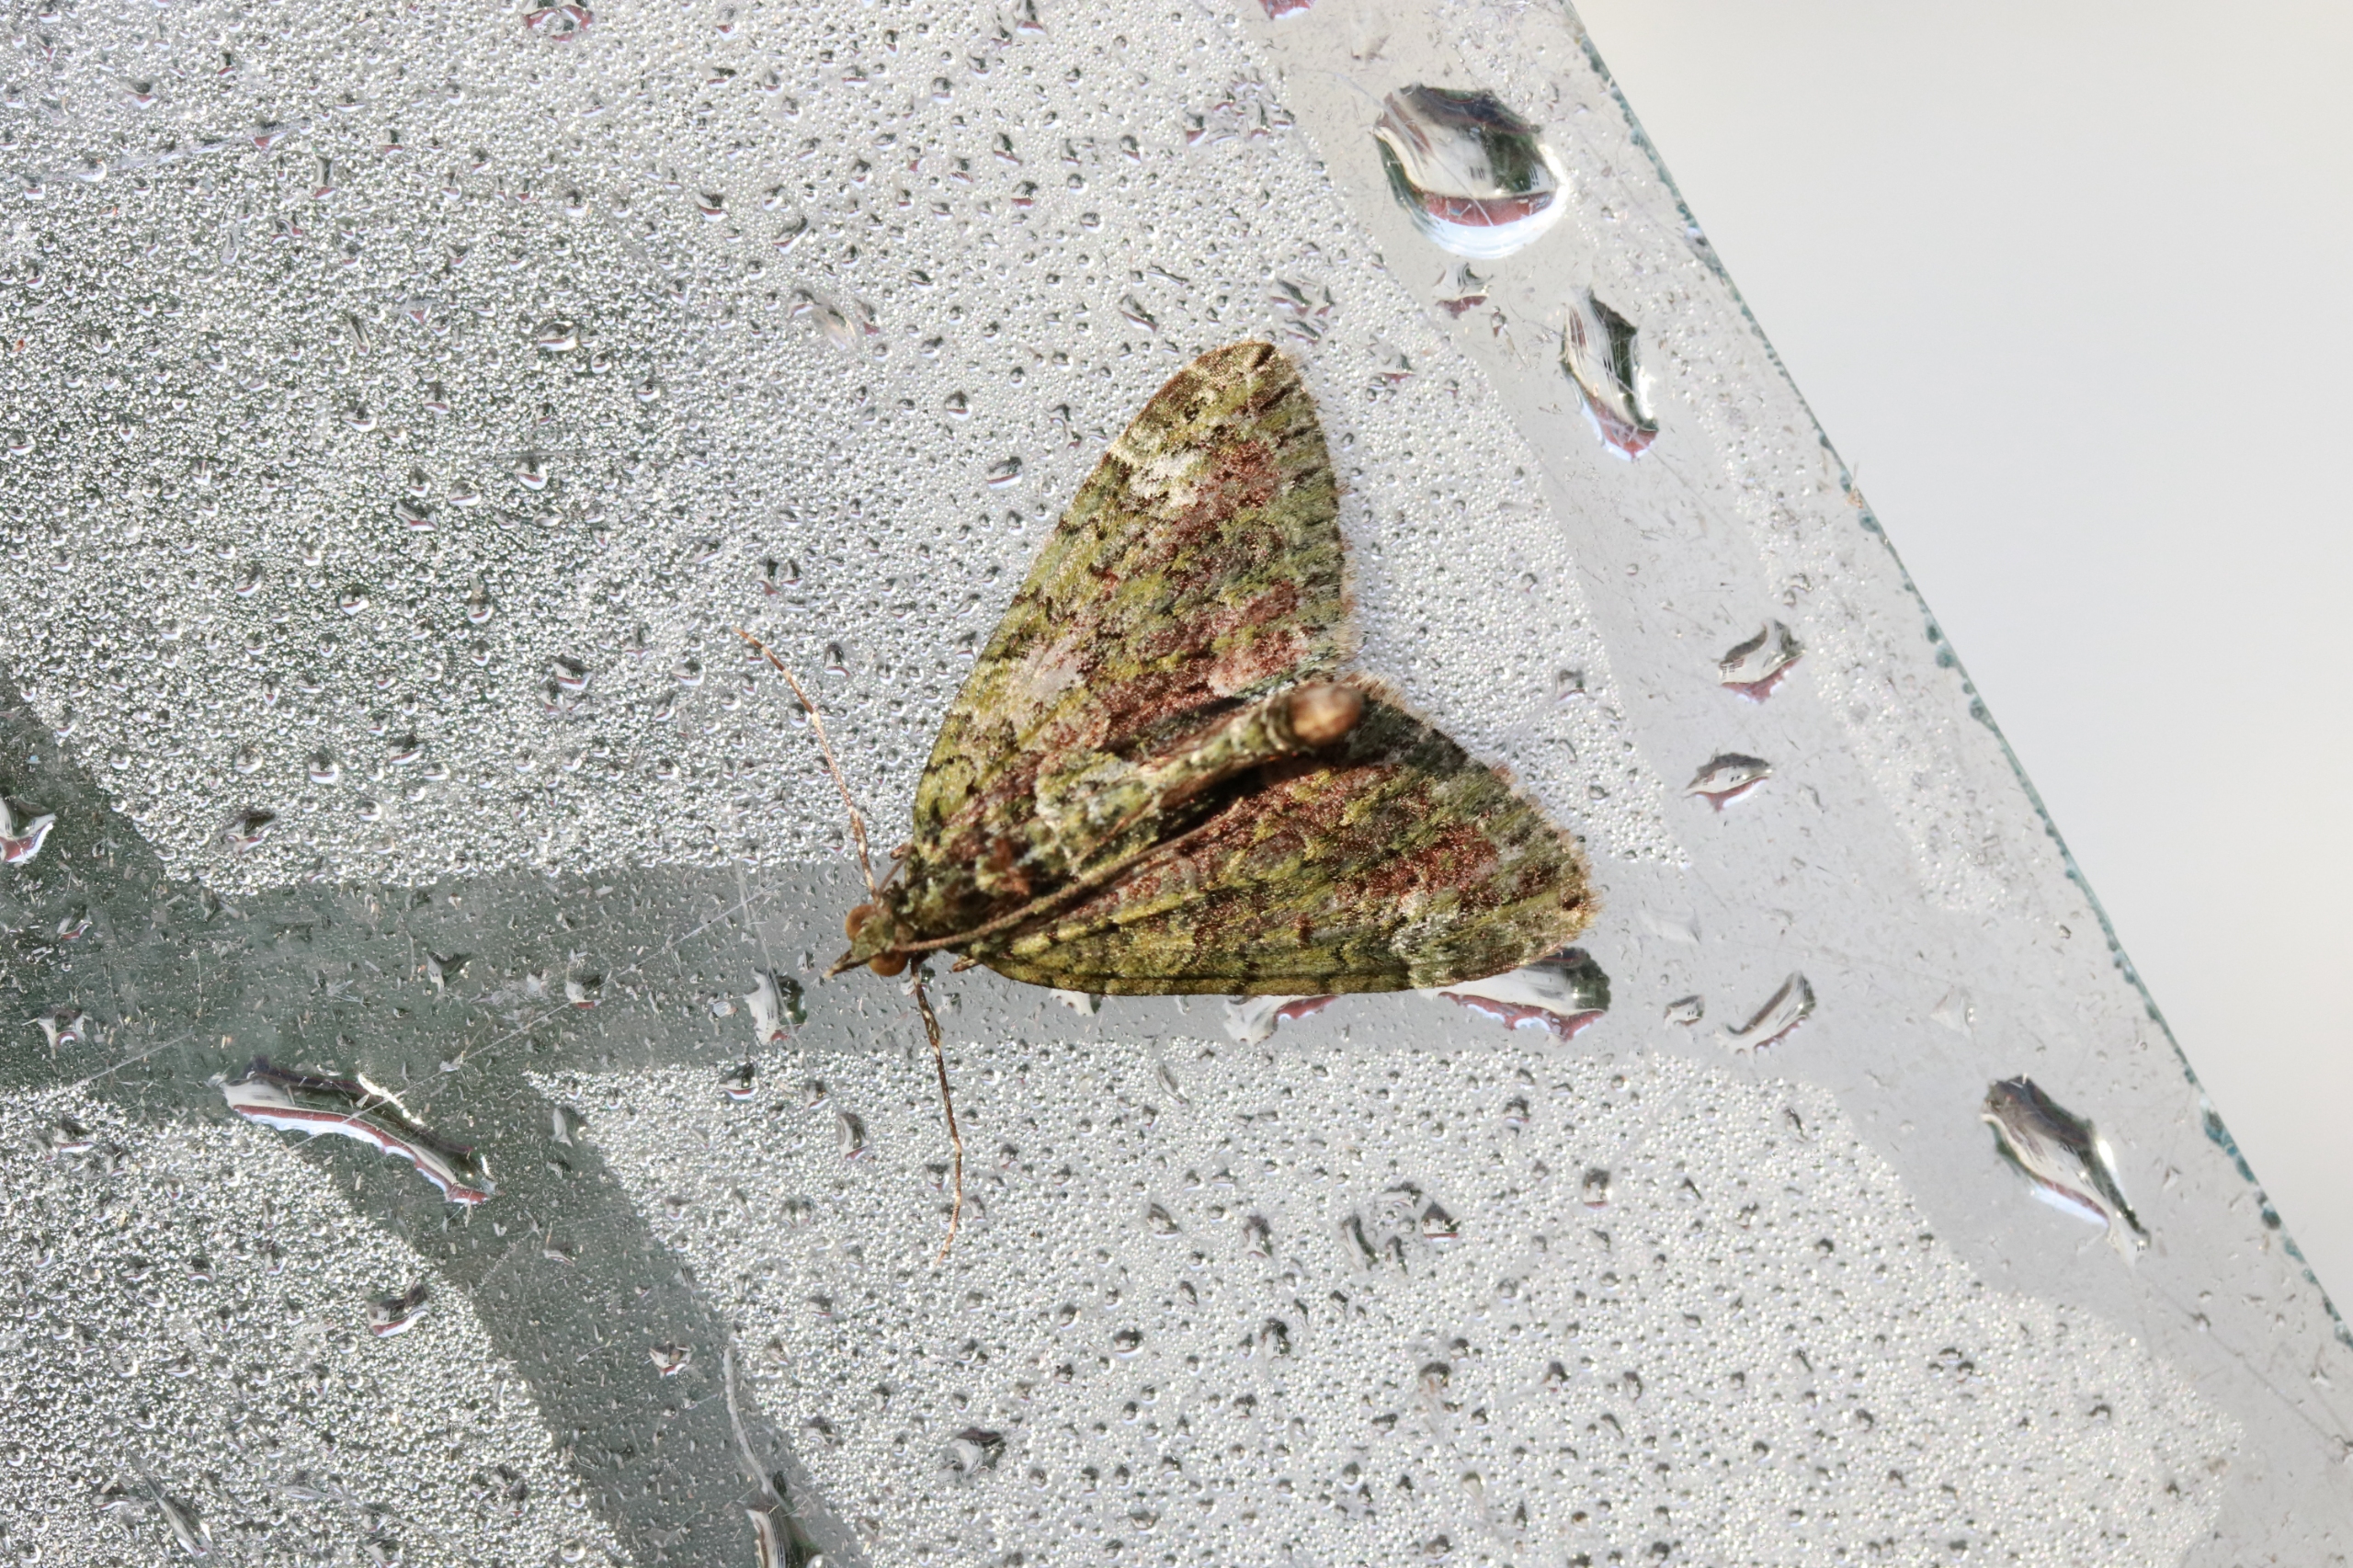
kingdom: Animalia
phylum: Arthropoda
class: Insecta
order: Lepidoptera
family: Geometridae
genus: Chloroclysta
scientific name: Chloroclysta siterata
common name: Brungrøn bladmåler
